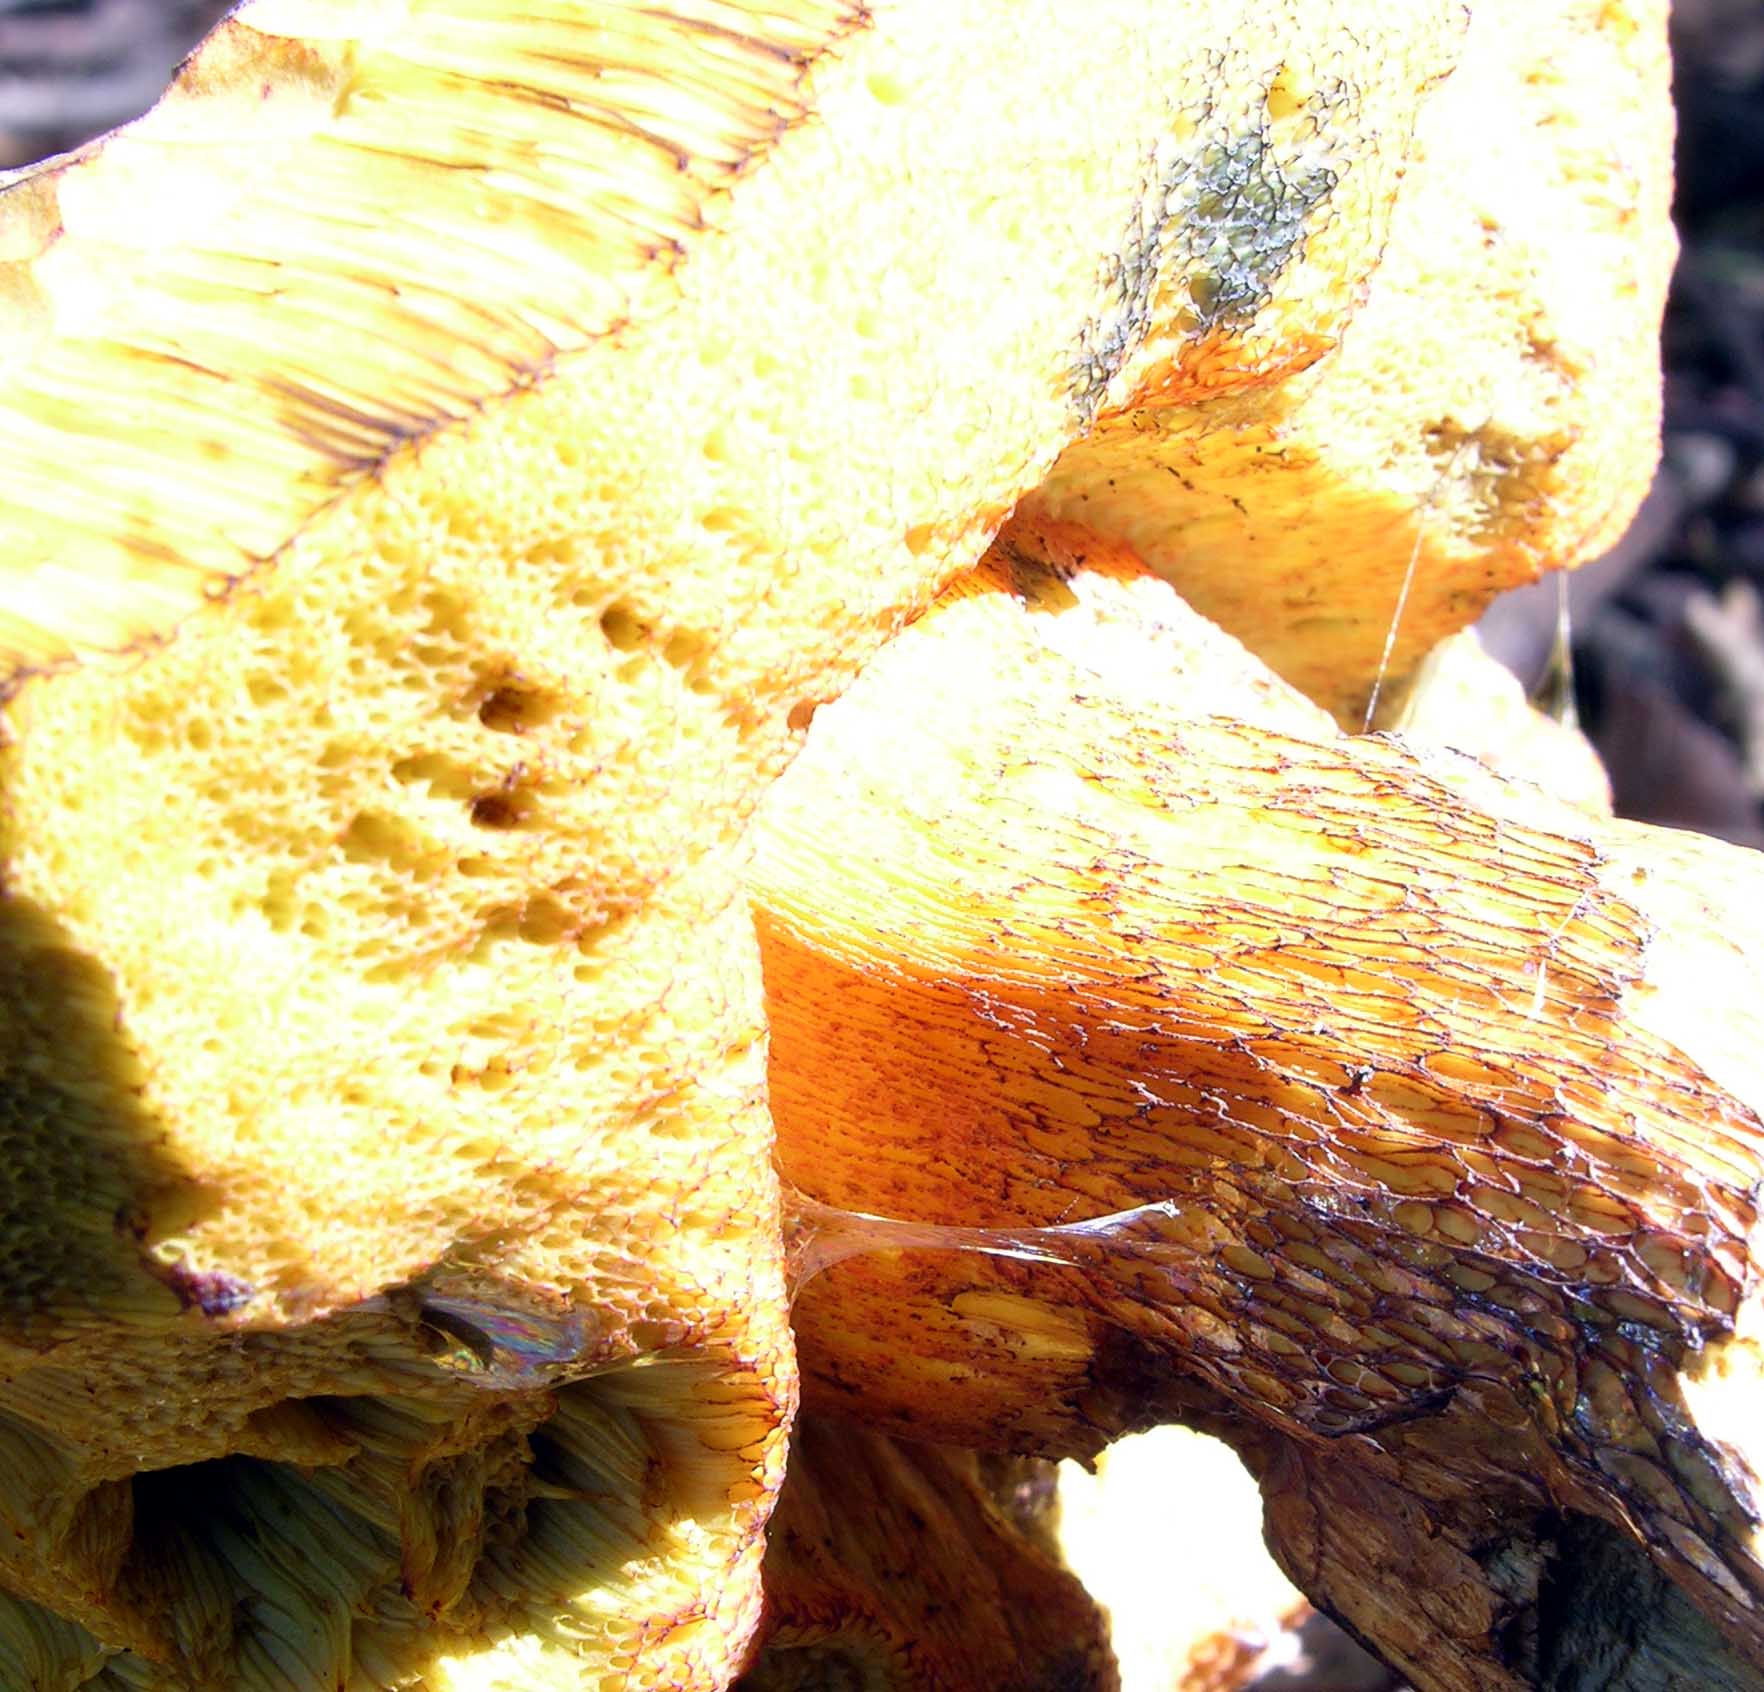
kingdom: Fungi
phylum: Basidiomycota
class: Agaricomycetes
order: Boletales
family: Boletaceae
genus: Suillellus
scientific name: Suillellus luridus
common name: netstokket indigorørhat
